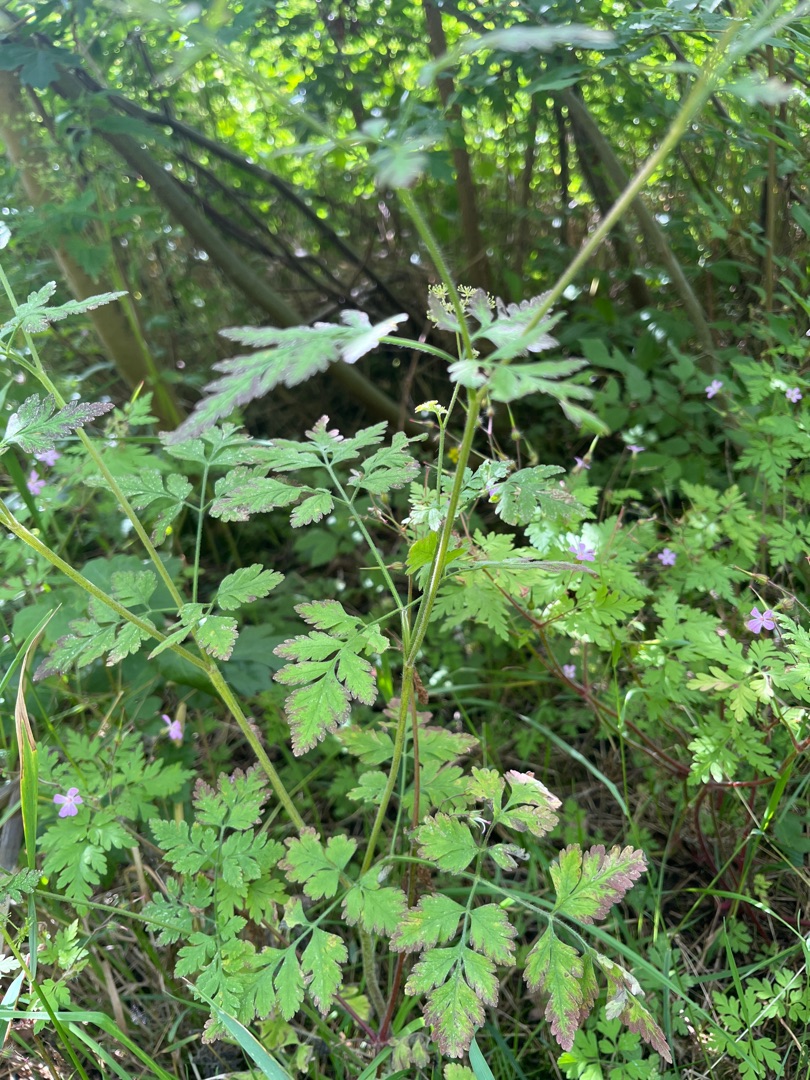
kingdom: Plantae
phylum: Tracheophyta
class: Magnoliopsida
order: Apiales
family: Apiaceae
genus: Chaerophyllum
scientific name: Chaerophyllum temulum
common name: Almindelig hulsvøb
